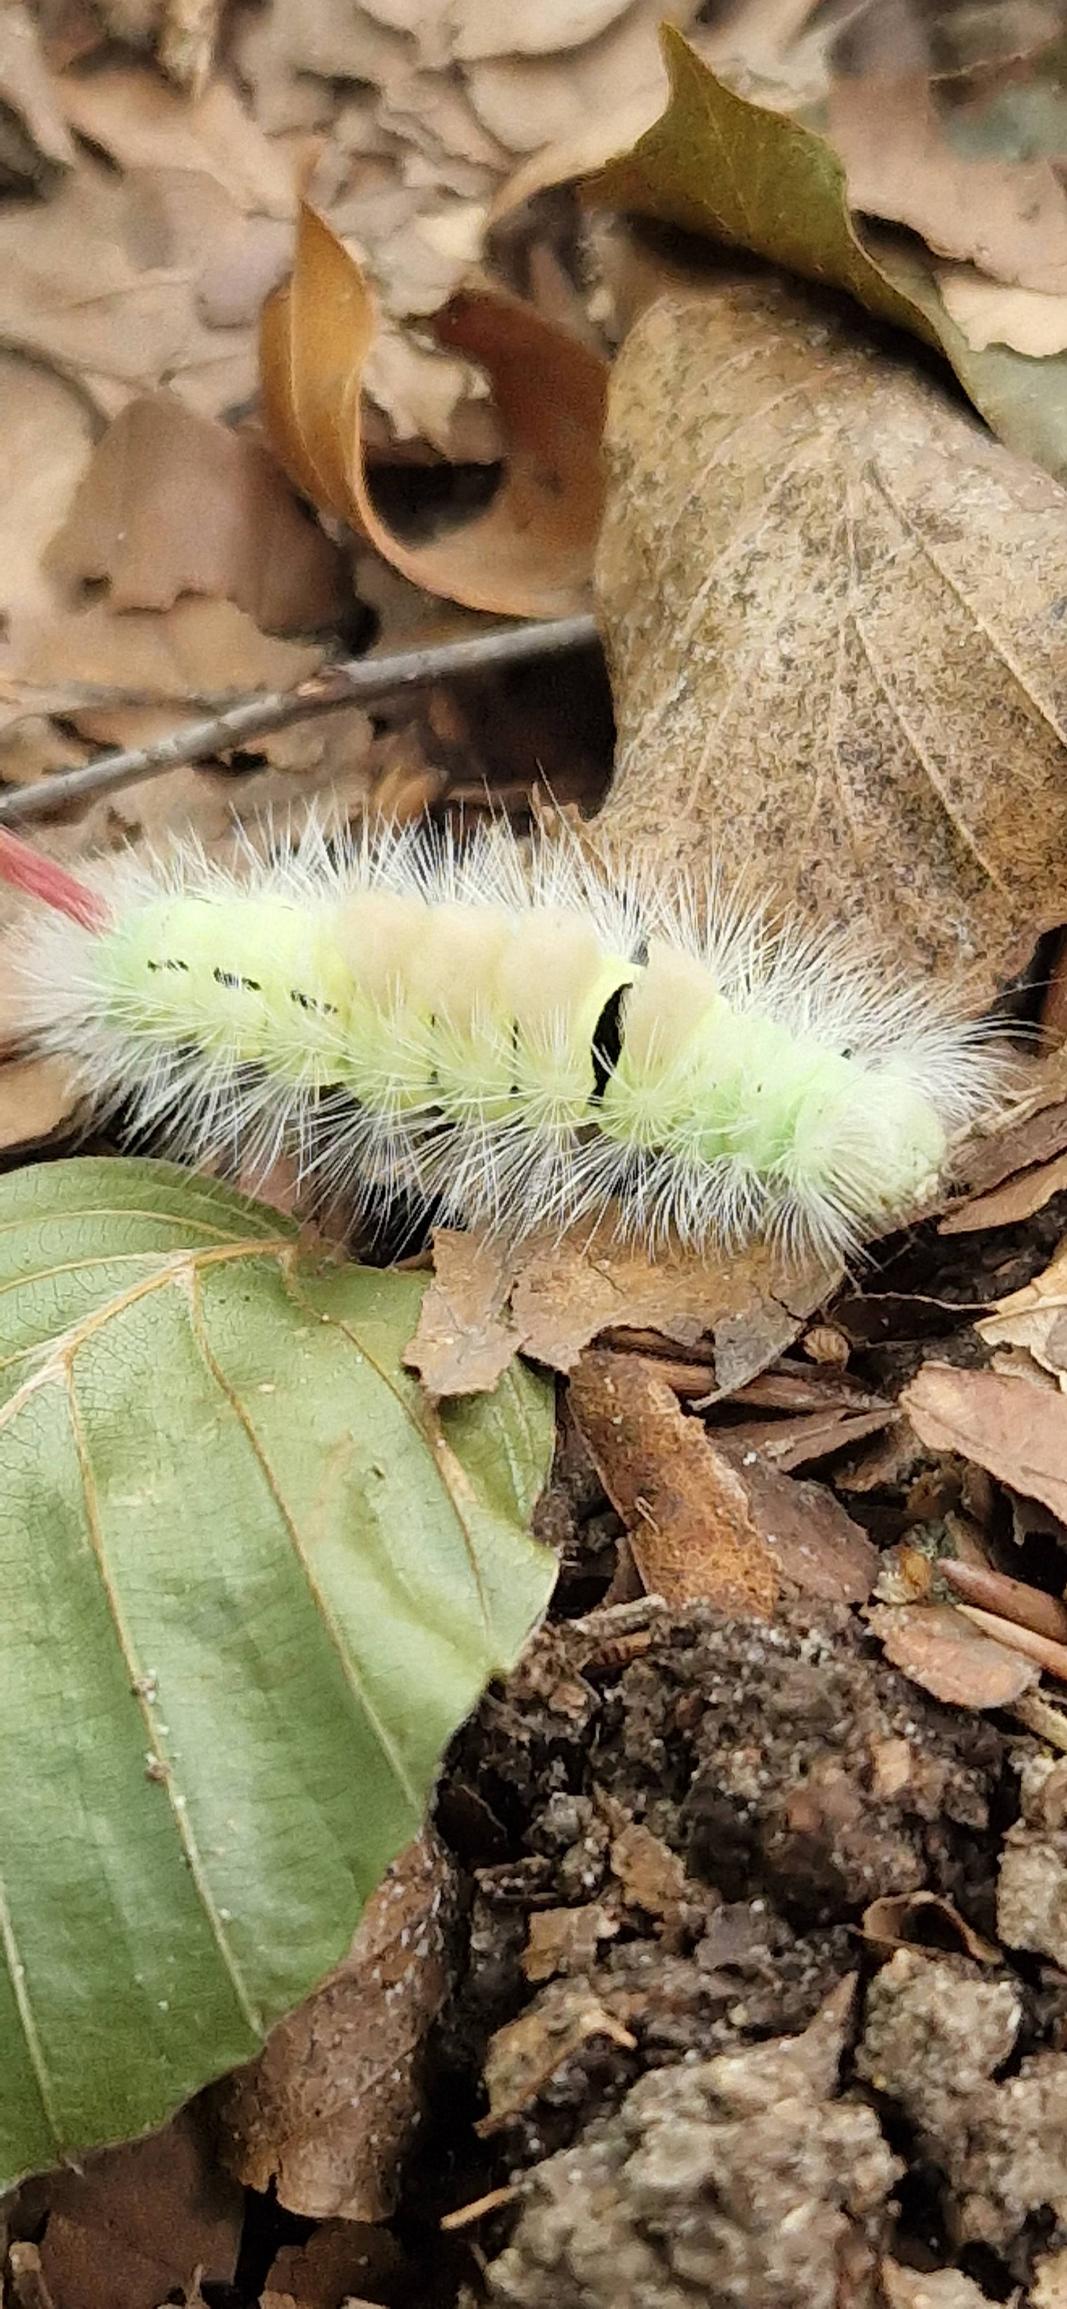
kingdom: Animalia
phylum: Arthropoda
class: Insecta
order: Lepidoptera
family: Erebidae
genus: Calliteara
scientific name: Calliteara pudibunda
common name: Bøgenonne
